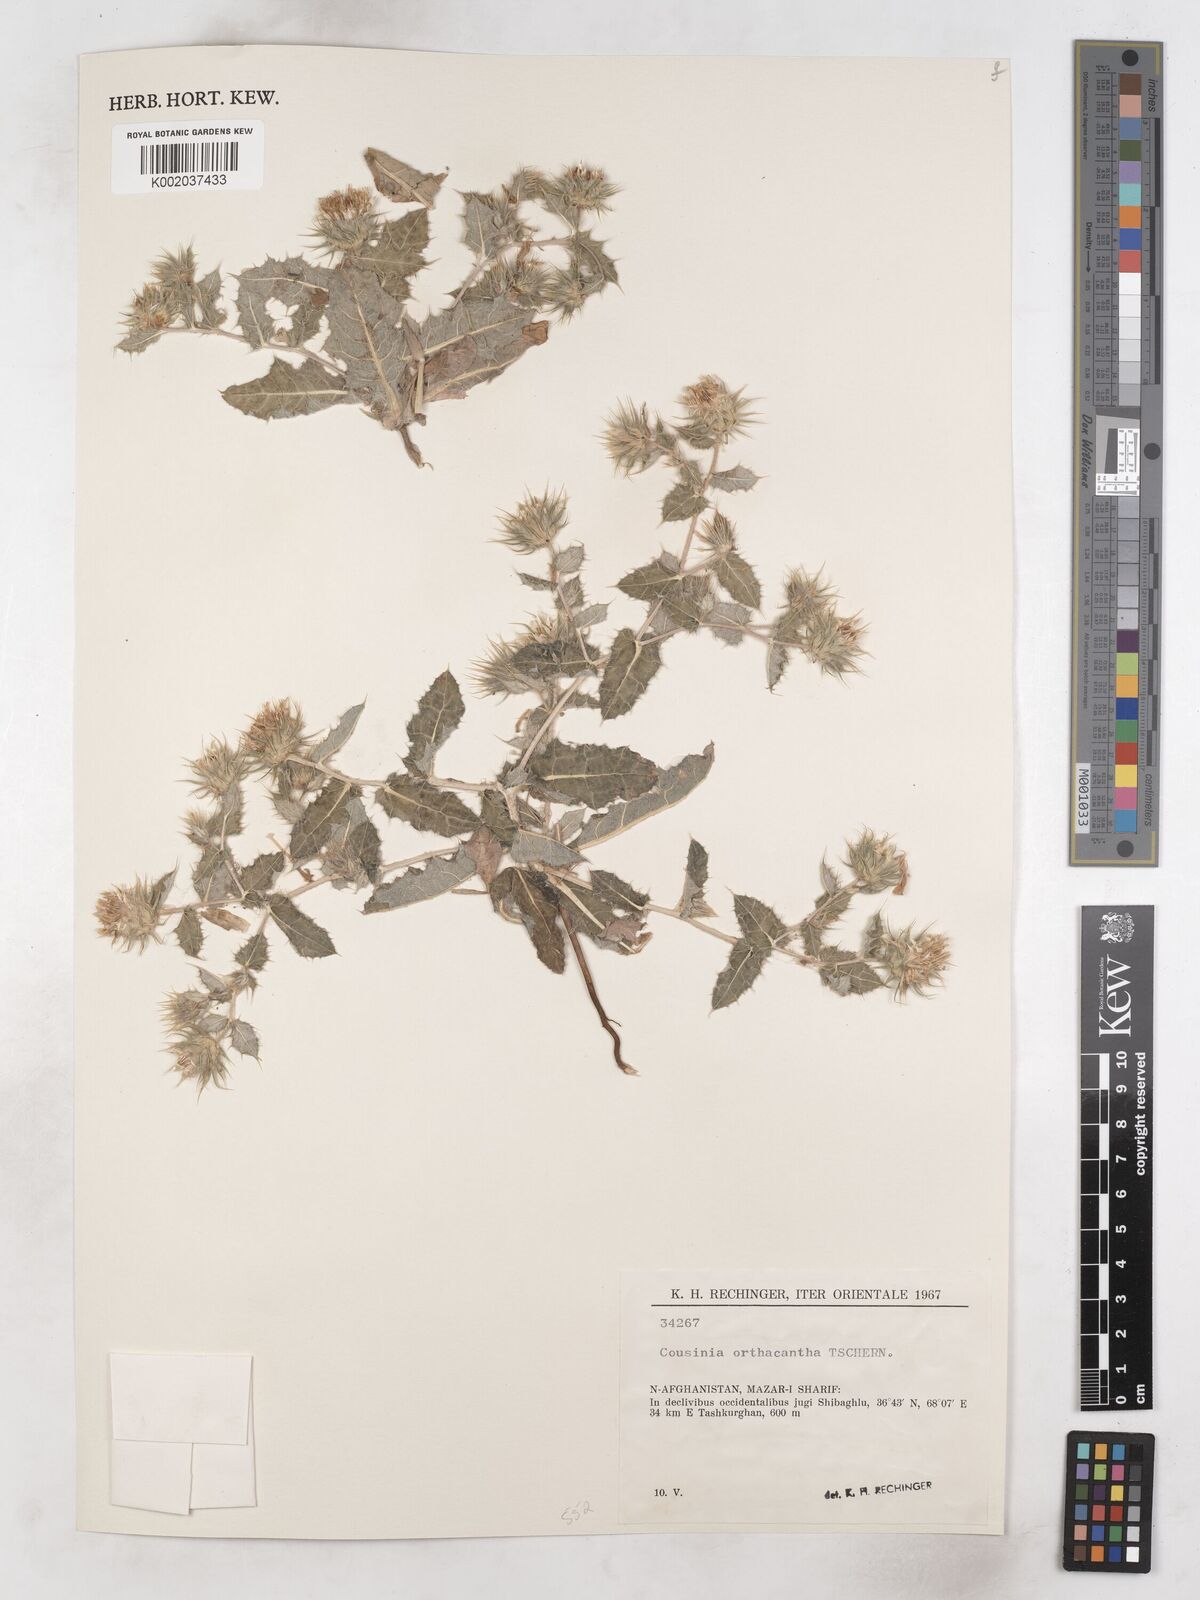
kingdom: Plantae
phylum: Tracheophyta
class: Magnoliopsida
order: Asterales
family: Asteraceae
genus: Cousinia
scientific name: Cousinia orthacantha
